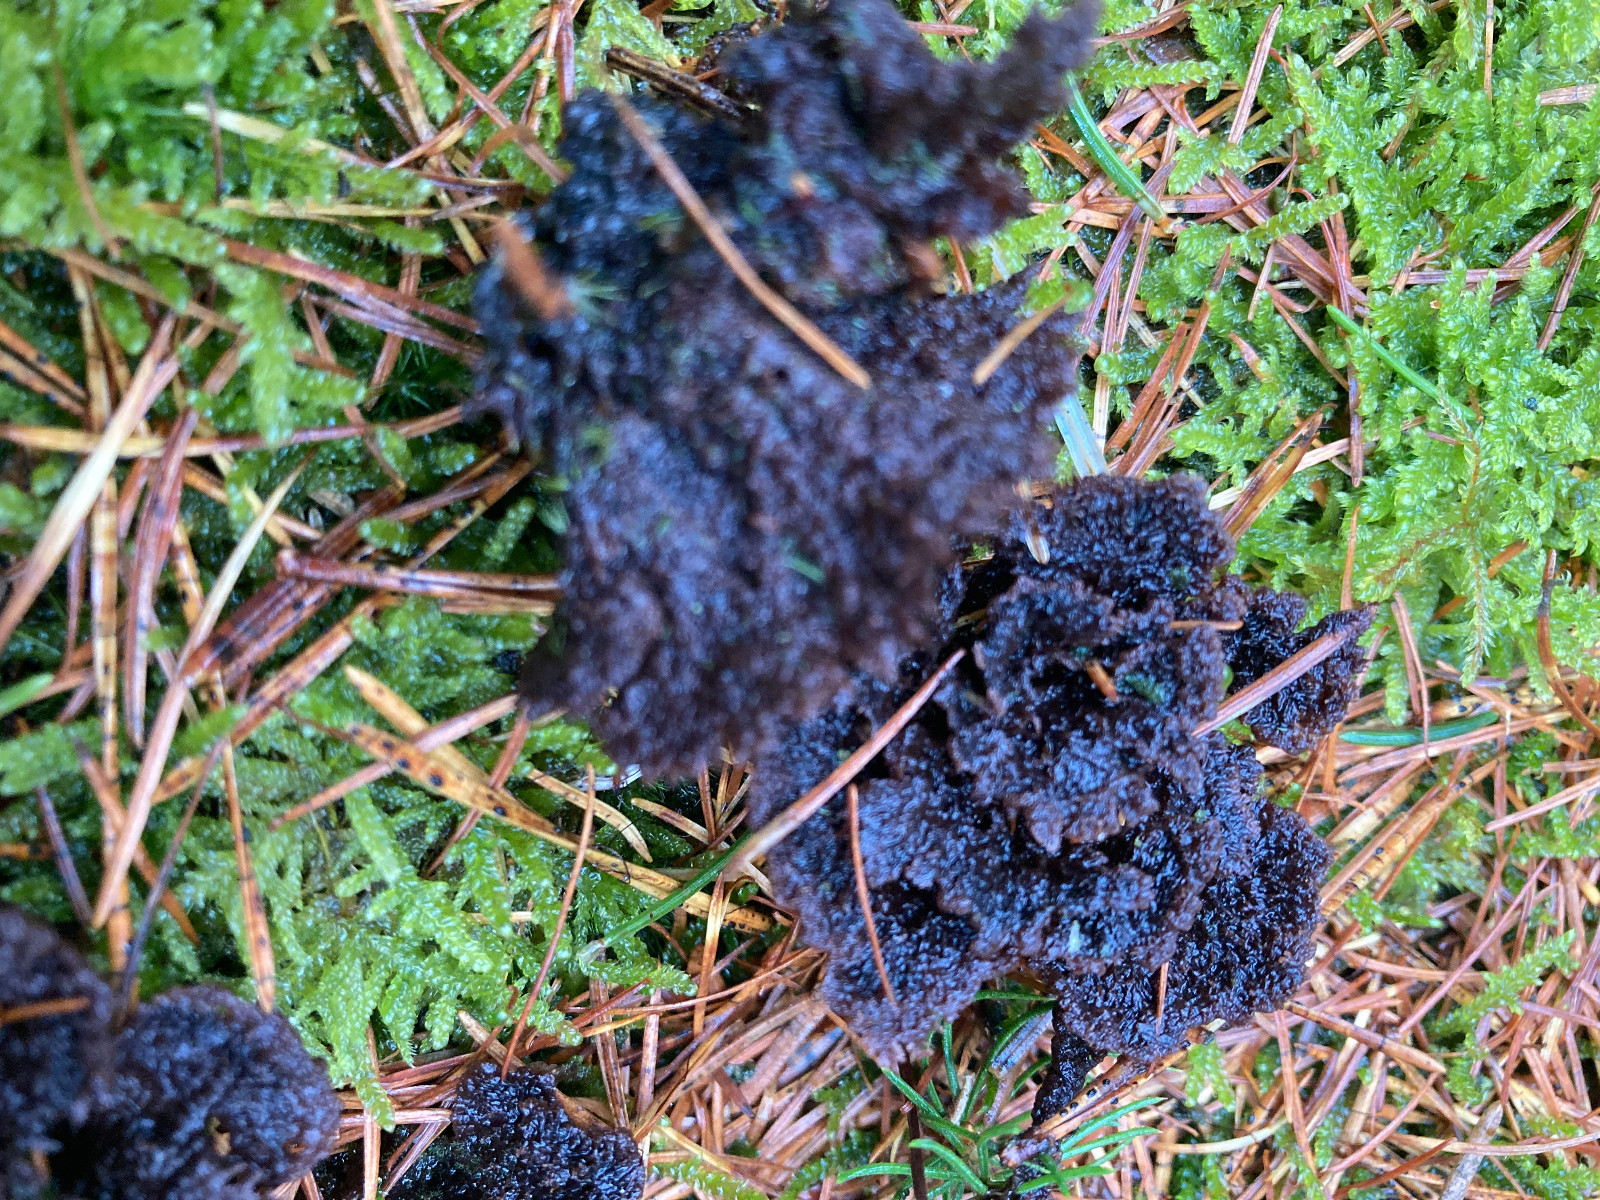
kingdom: Fungi
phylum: Basidiomycota
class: Agaricomycetes
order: Thelephorales
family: Thelephoraceae
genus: Thelephora
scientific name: Thelephora terrestris
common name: fliget frynsesvamp
